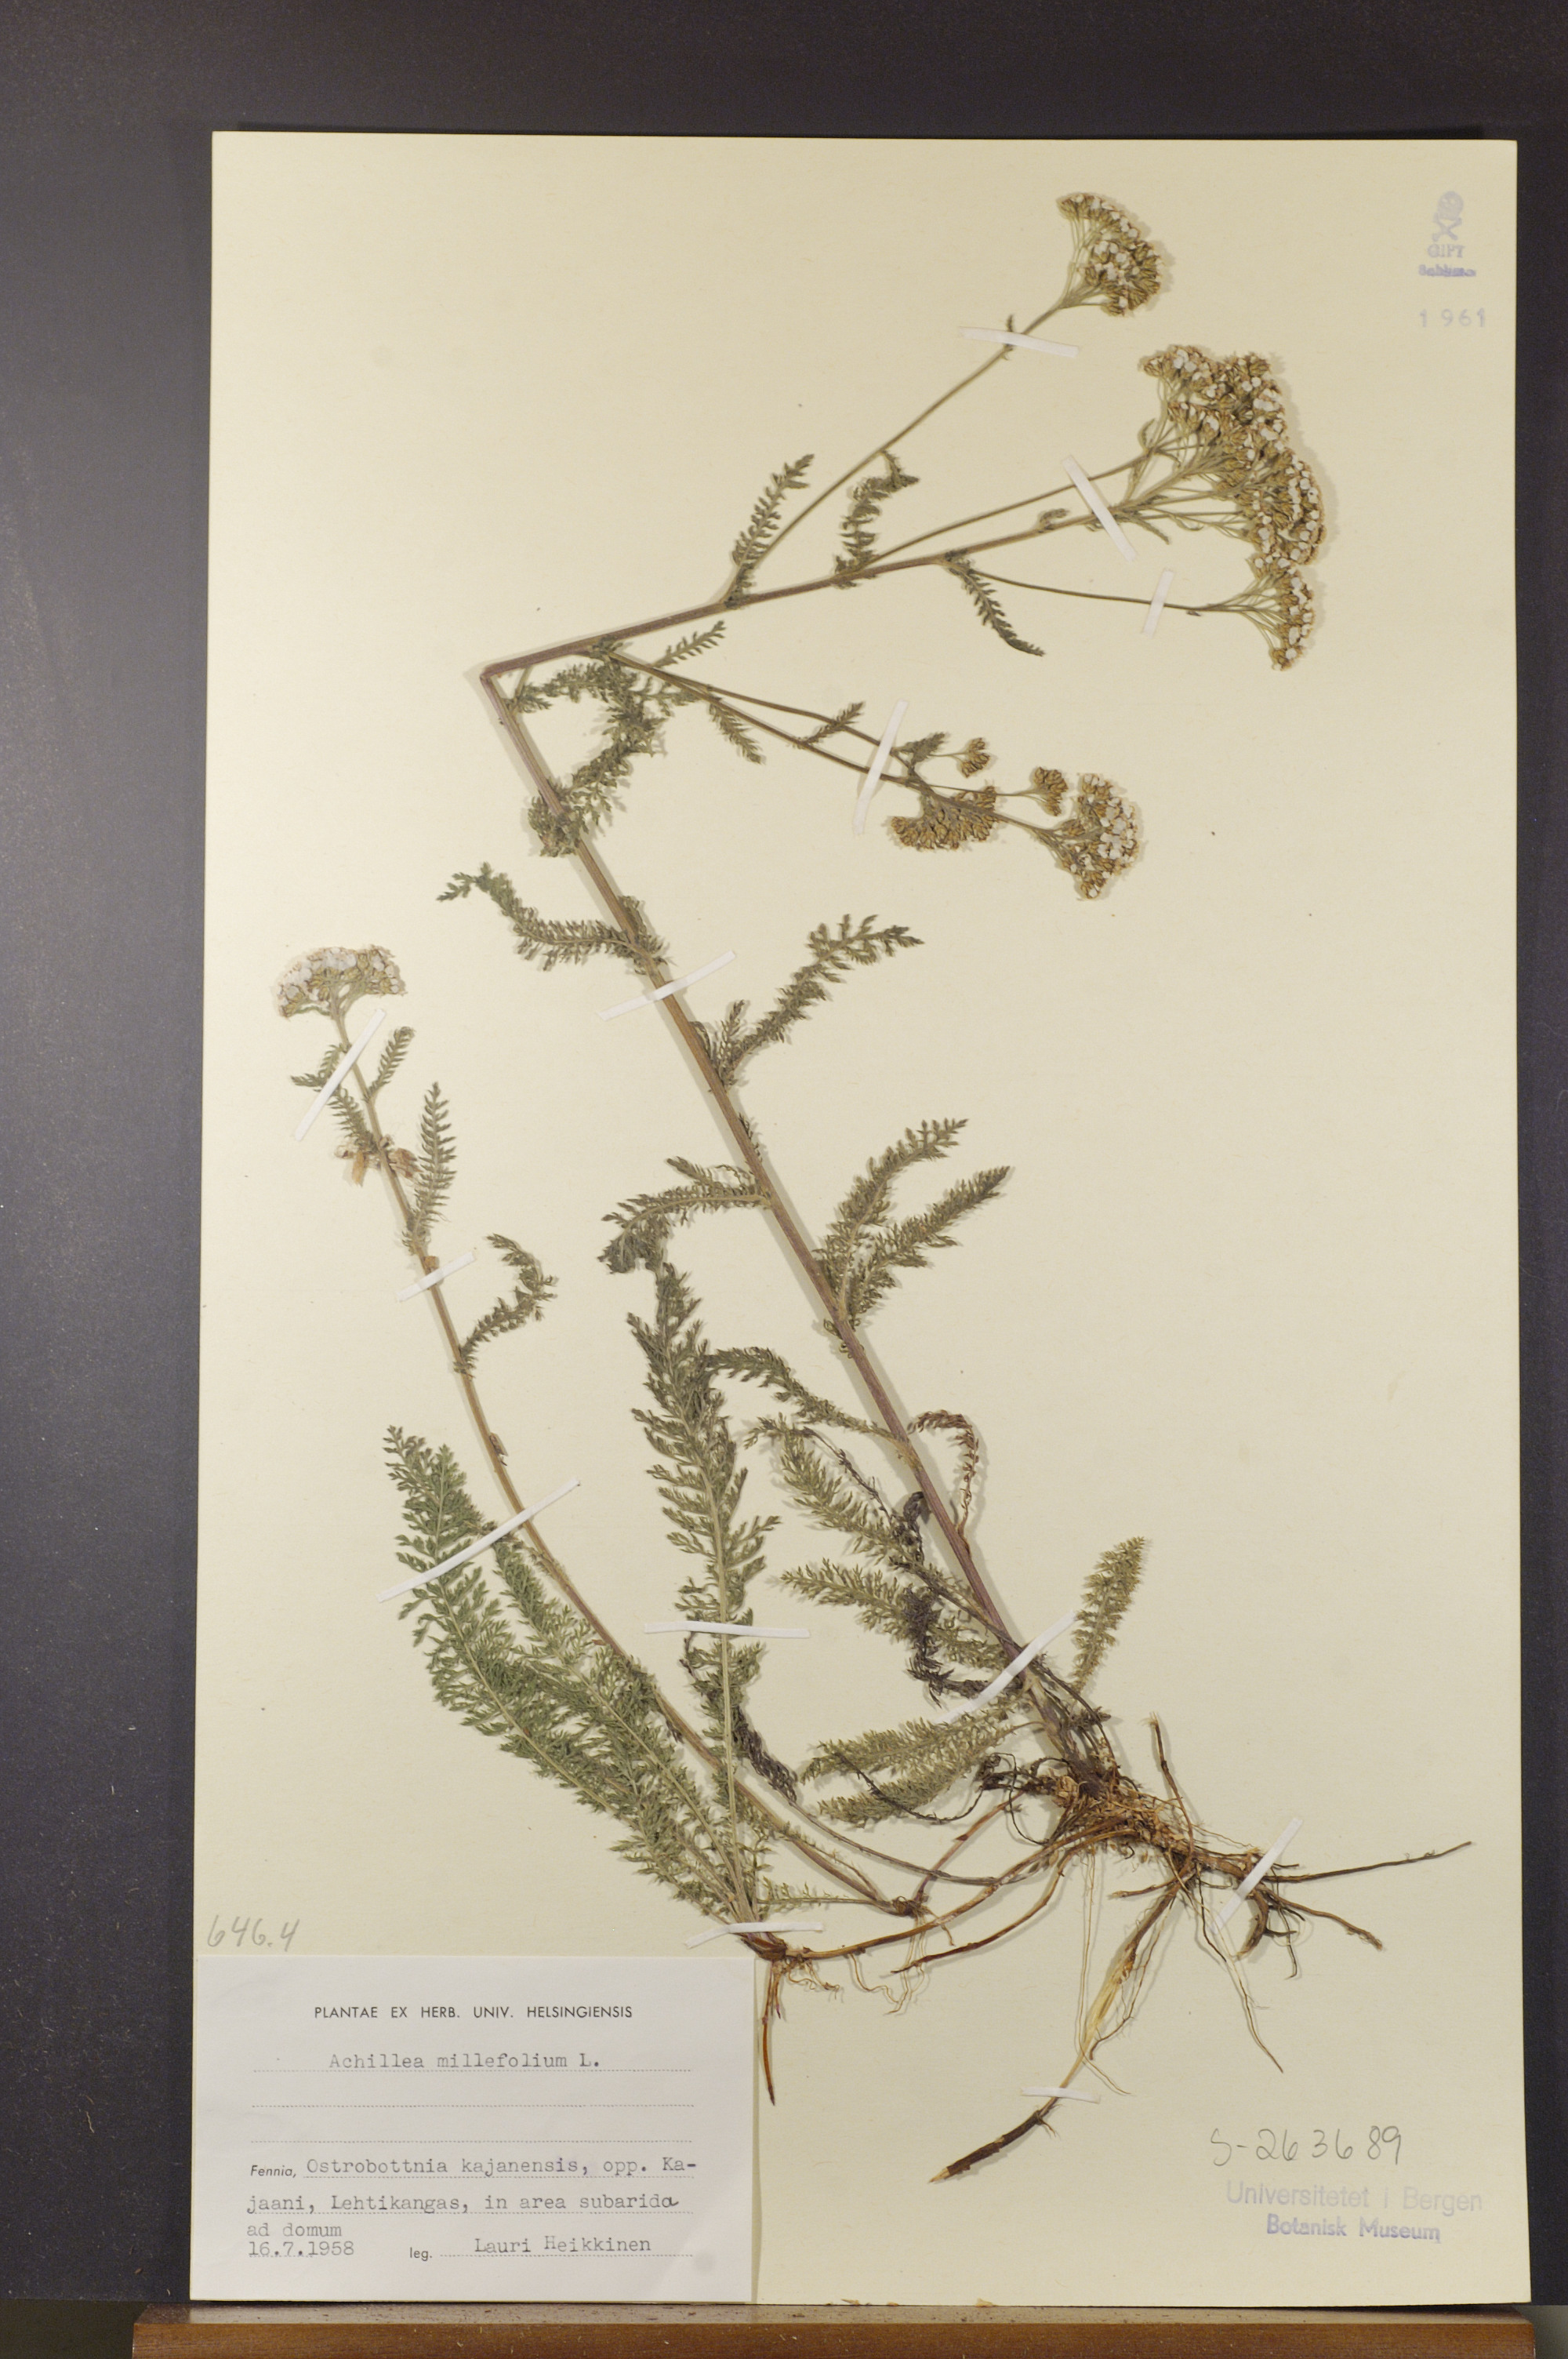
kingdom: Plantae
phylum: Tracheophyta
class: Magnoliopsida
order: Asterales
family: Asteraceae
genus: Achillea
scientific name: Achillea millefolium
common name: Yarrow
